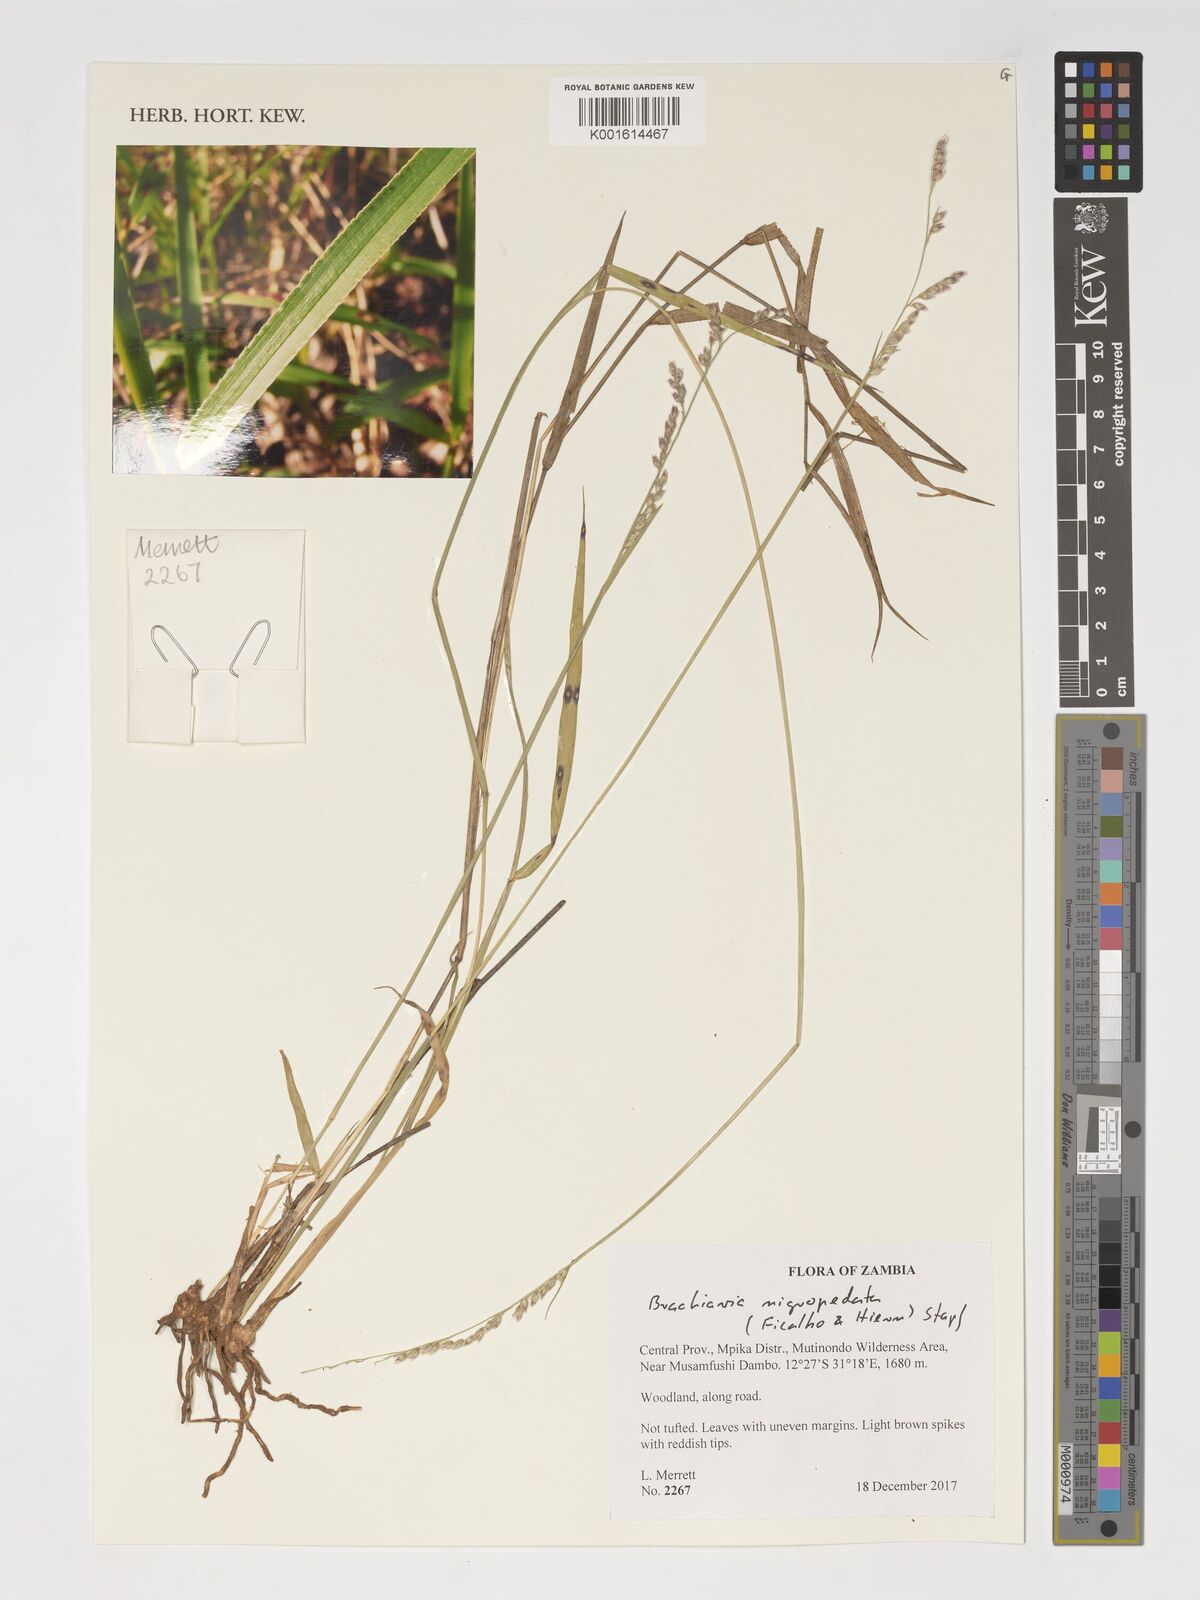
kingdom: Plantae
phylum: Tracheophyta
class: Liliopsida
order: Poales
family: Poaceae
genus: Urochloa
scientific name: Urochloa nigropedata
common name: Spotted signal grass
